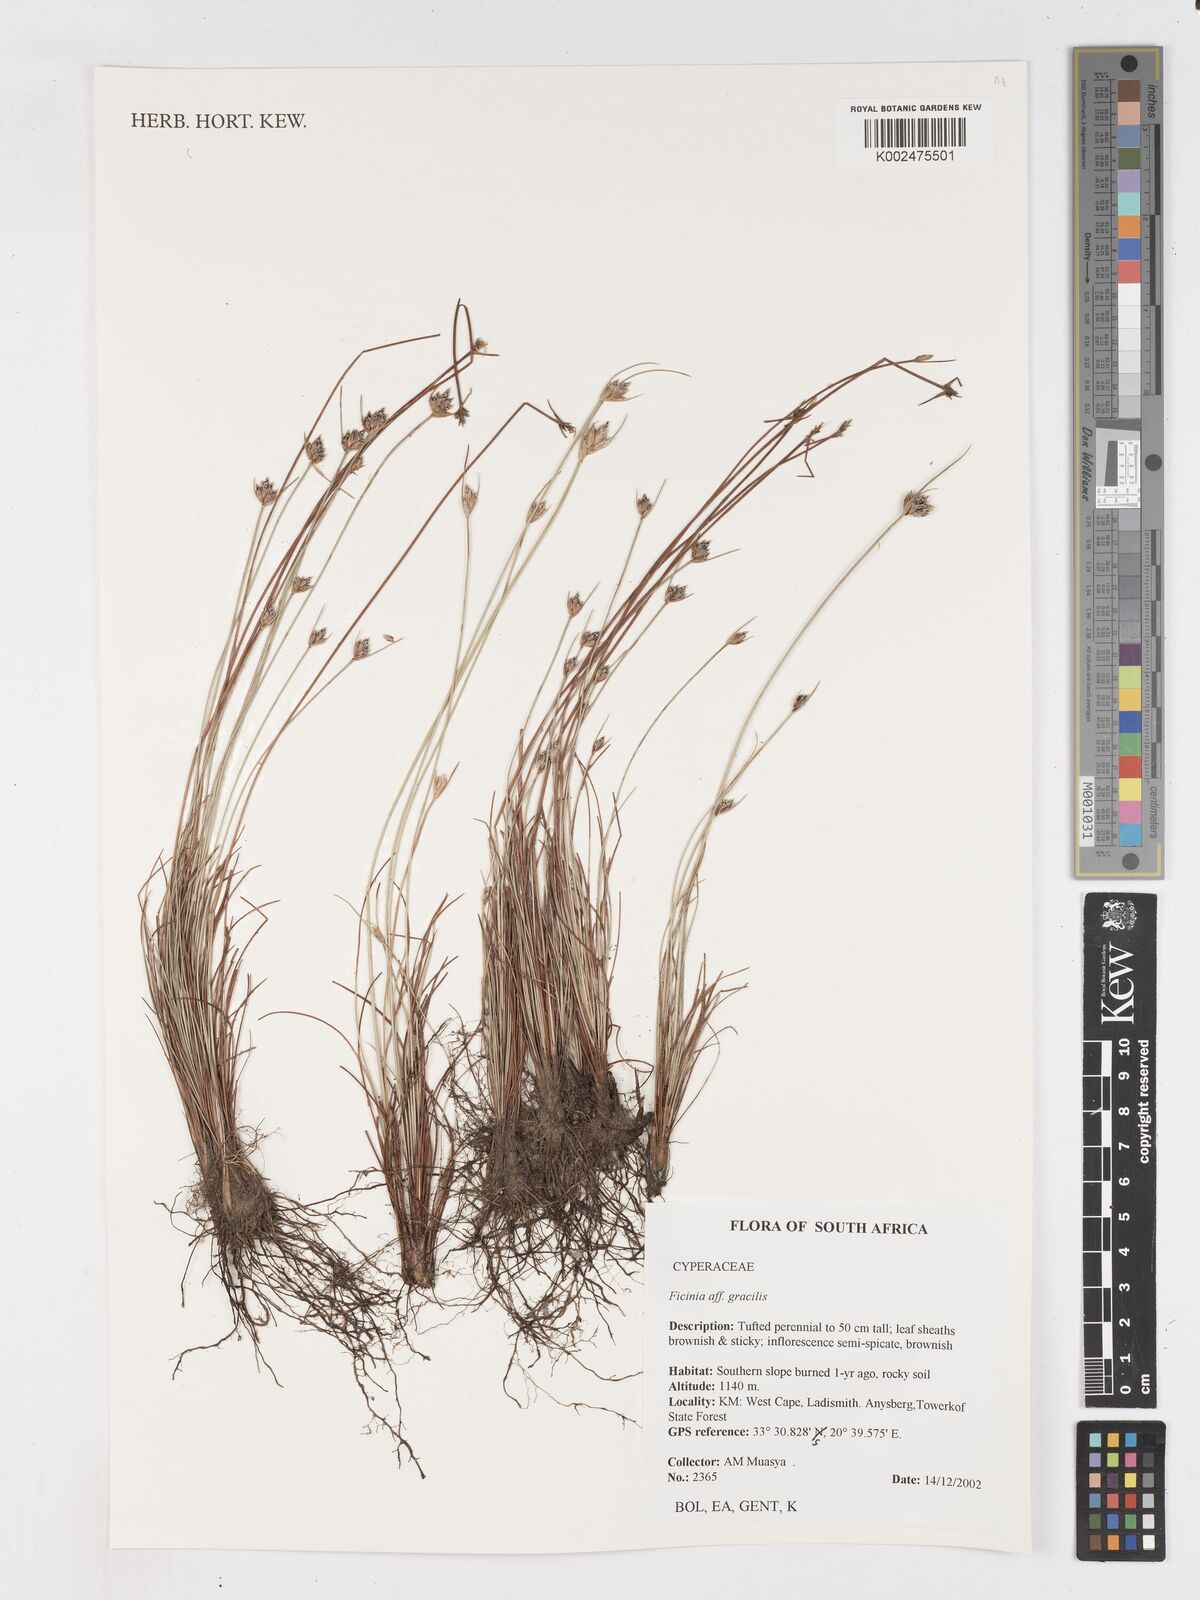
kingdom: Plantae
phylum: Tracheophyta
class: Liliopsida
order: Poales
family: Cyperaceae
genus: Ficinia
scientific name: Ficinia gracilis
